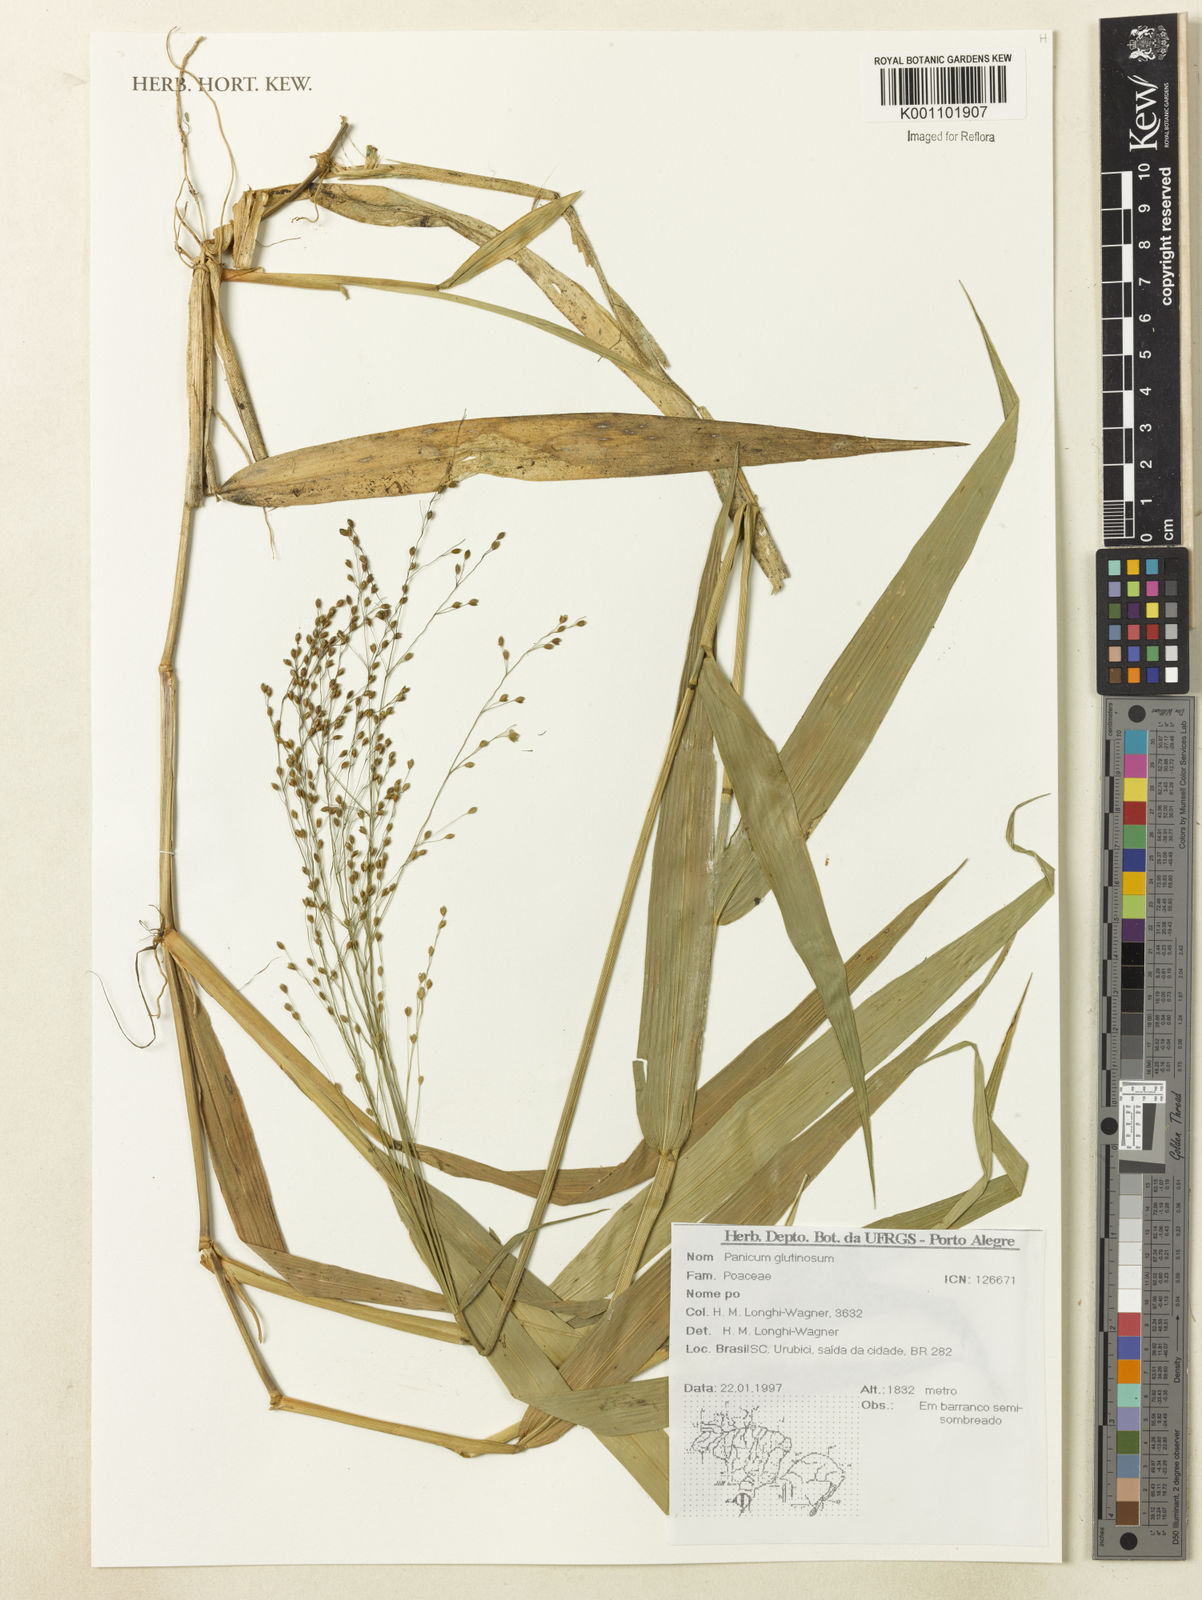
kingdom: Plantae
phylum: Tracheophyta
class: Liliopsida
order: Poales
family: Poaceae
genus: Homolepis
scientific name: Homolepis glutinosa
